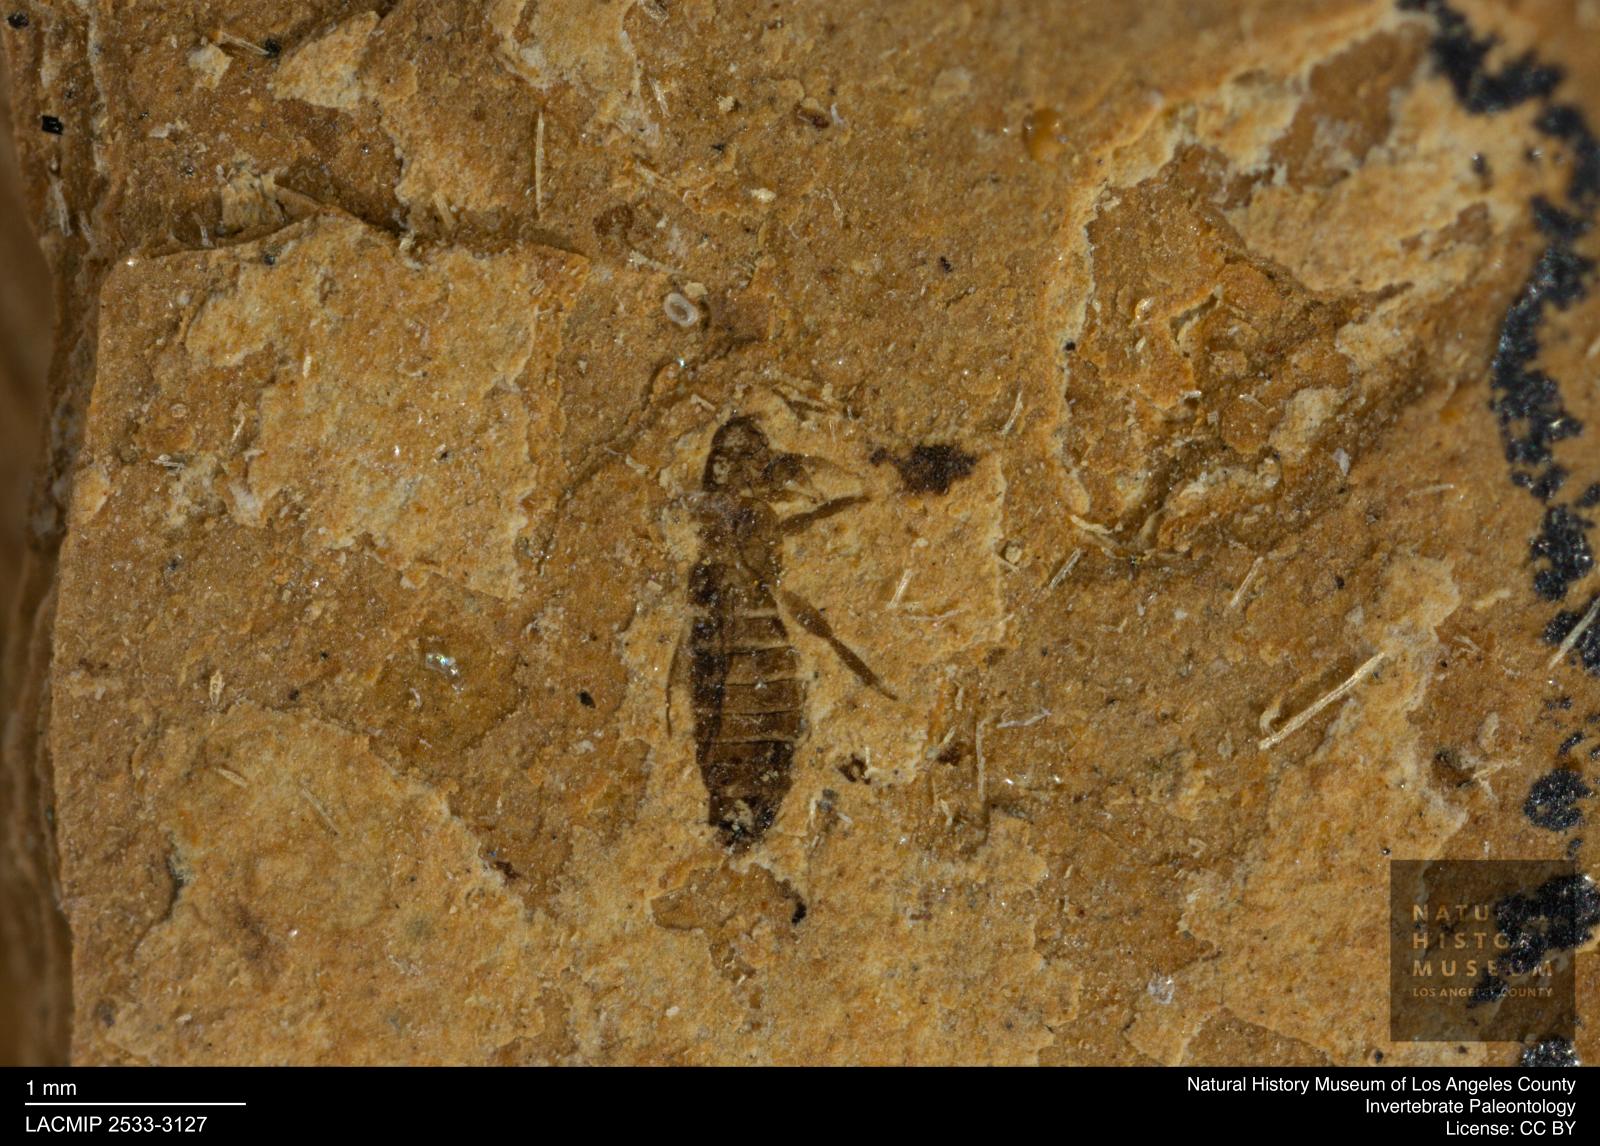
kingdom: Animalia
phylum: Arthropoda
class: Insecta
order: Thysanoptera
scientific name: Thysanoptera
